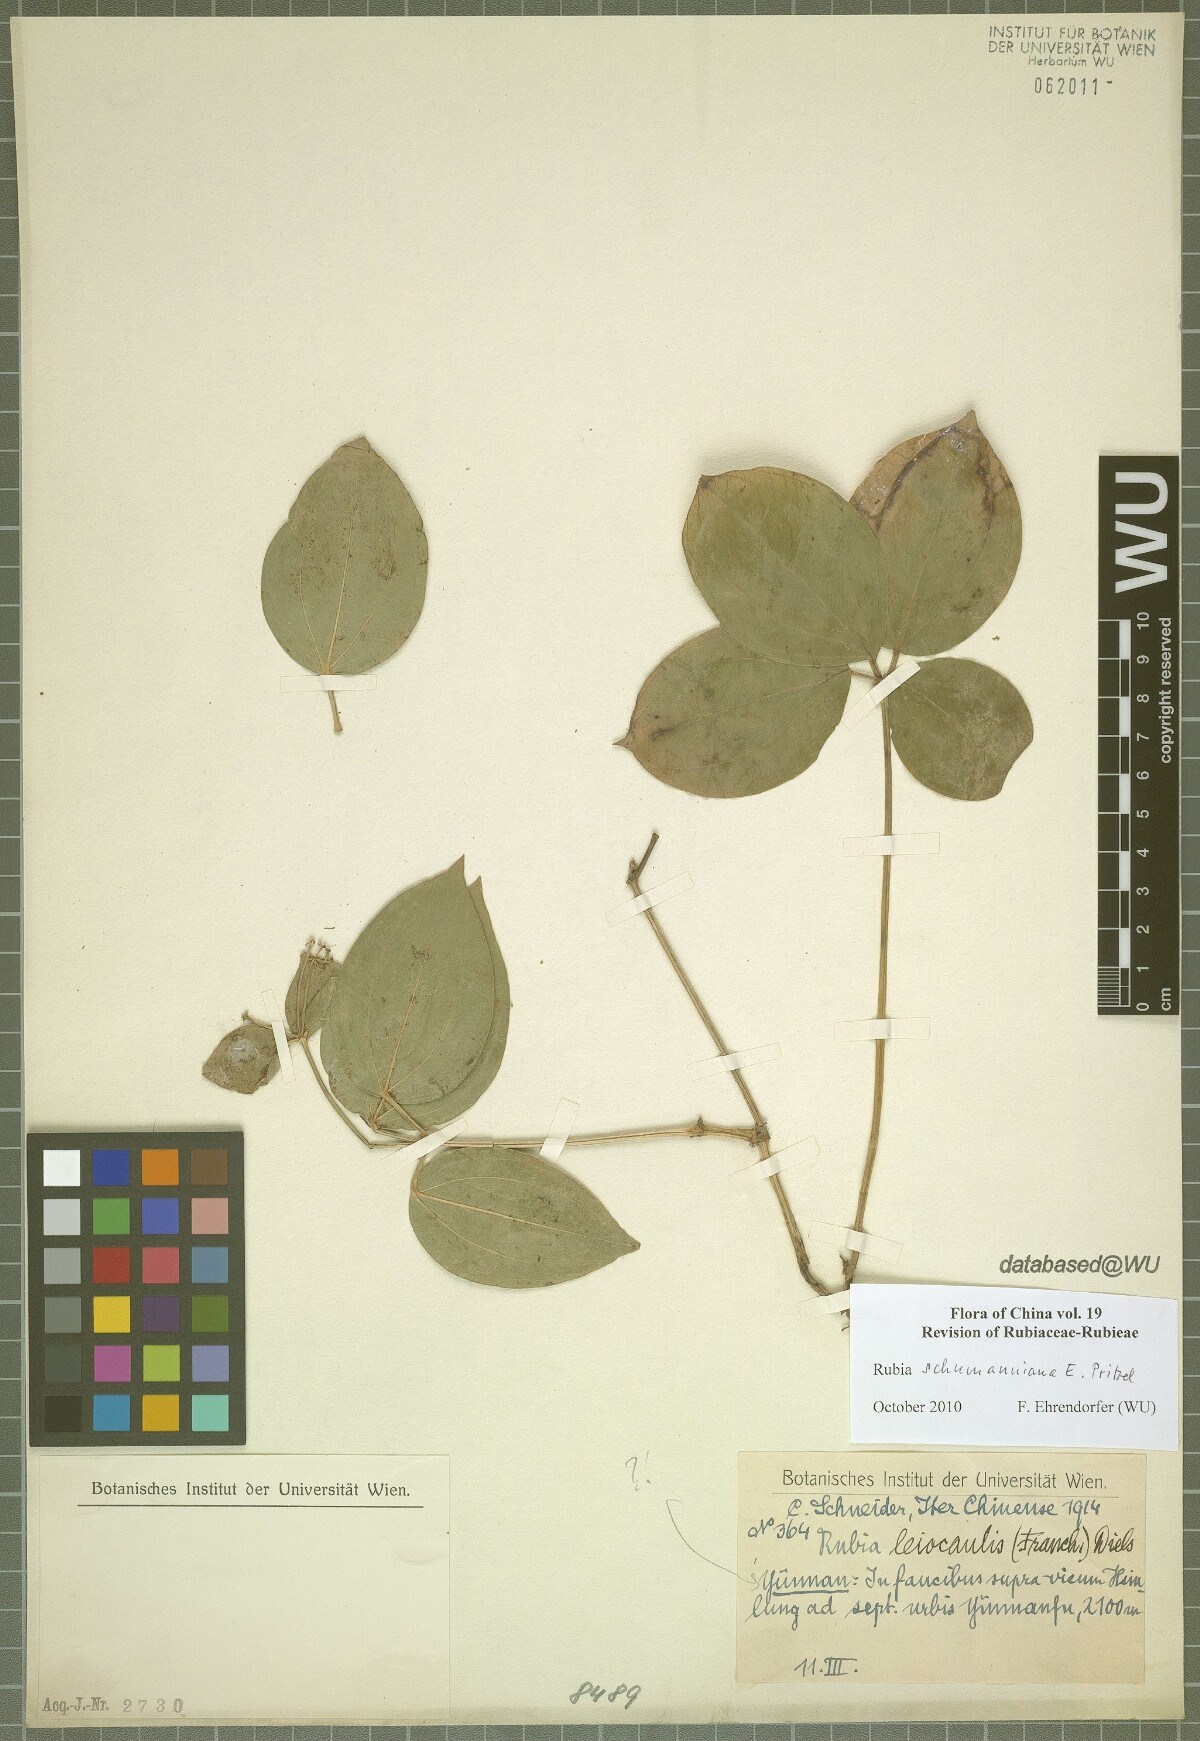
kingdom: Plantae
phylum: Tracheophyta
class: Magnoliopsida
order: Gentianales
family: Rubiaceae
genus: Rubia
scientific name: Rubia schumanniana
